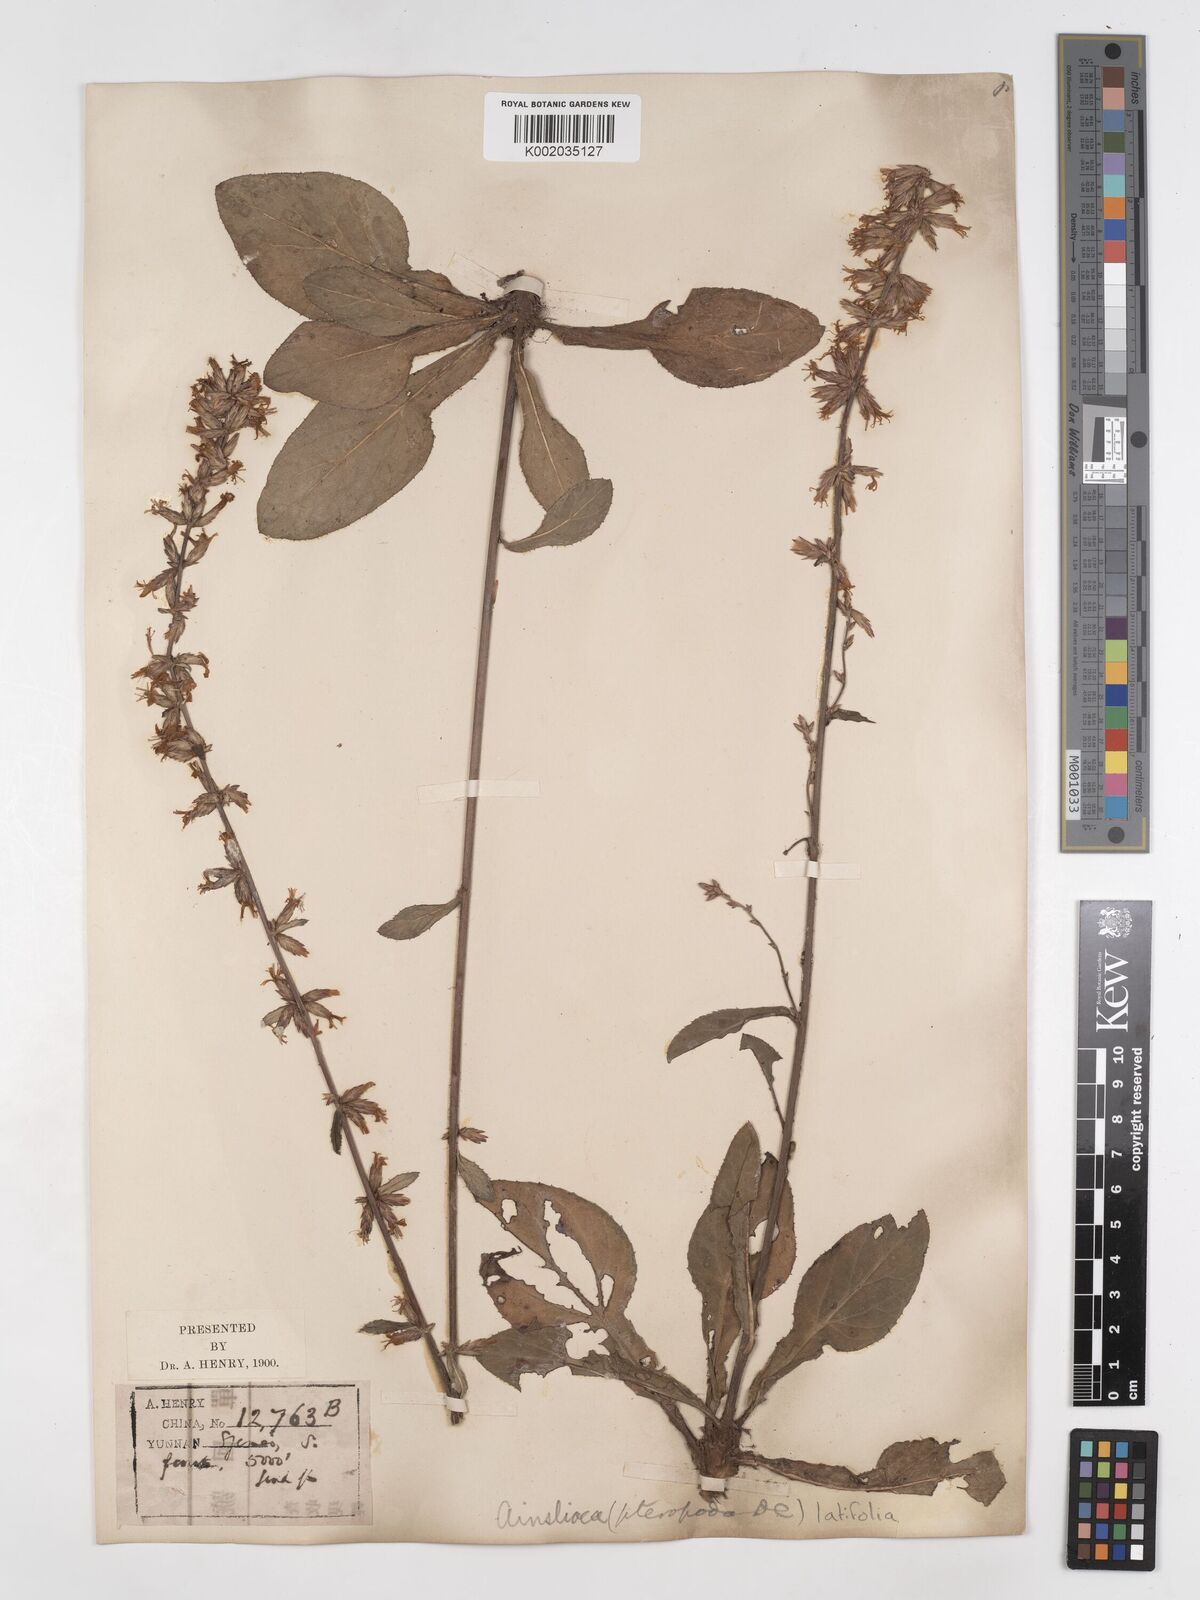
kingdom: Plantae
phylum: Tracheophyta
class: Magnoliopsida
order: Asterales
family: Asteraceae
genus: Ainsliaea
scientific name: Ainsliaea latifolia
